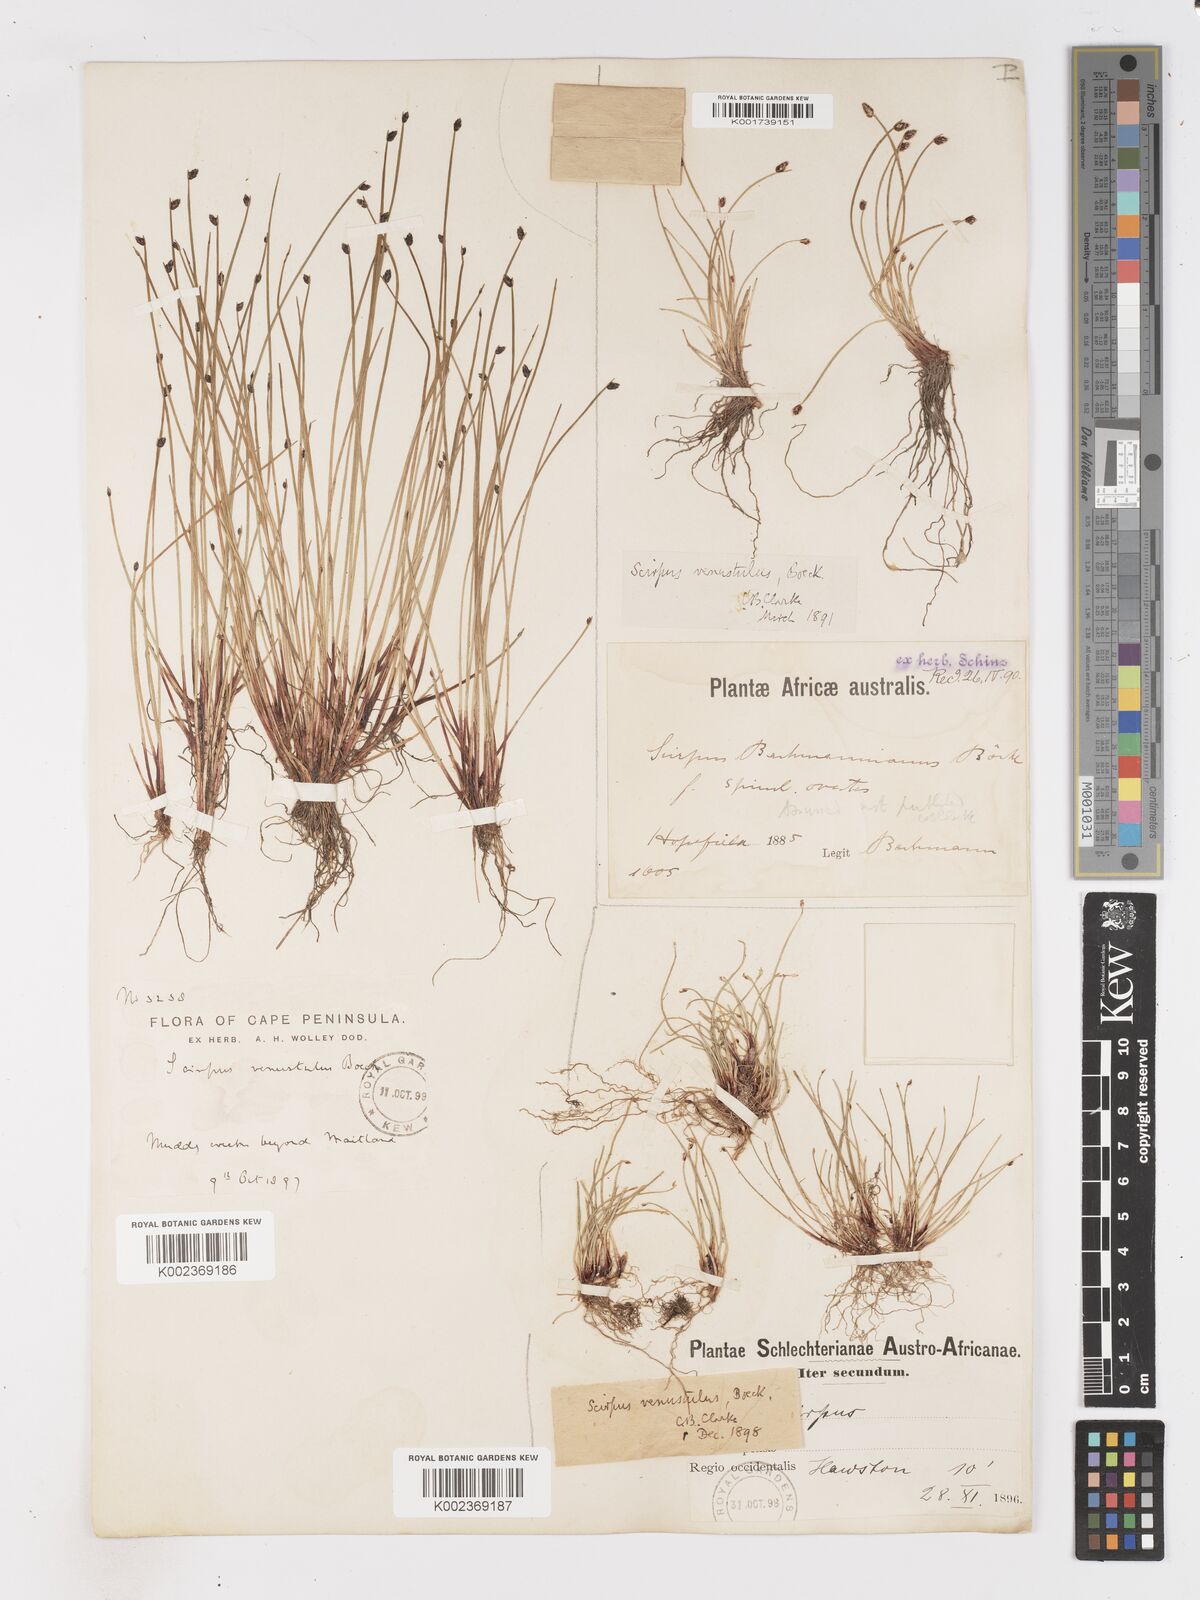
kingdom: Plantae
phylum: Tracheophyta
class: Liliopsida
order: Poales
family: Cyperaceae
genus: Isolepis
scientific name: Isolepis venustula
